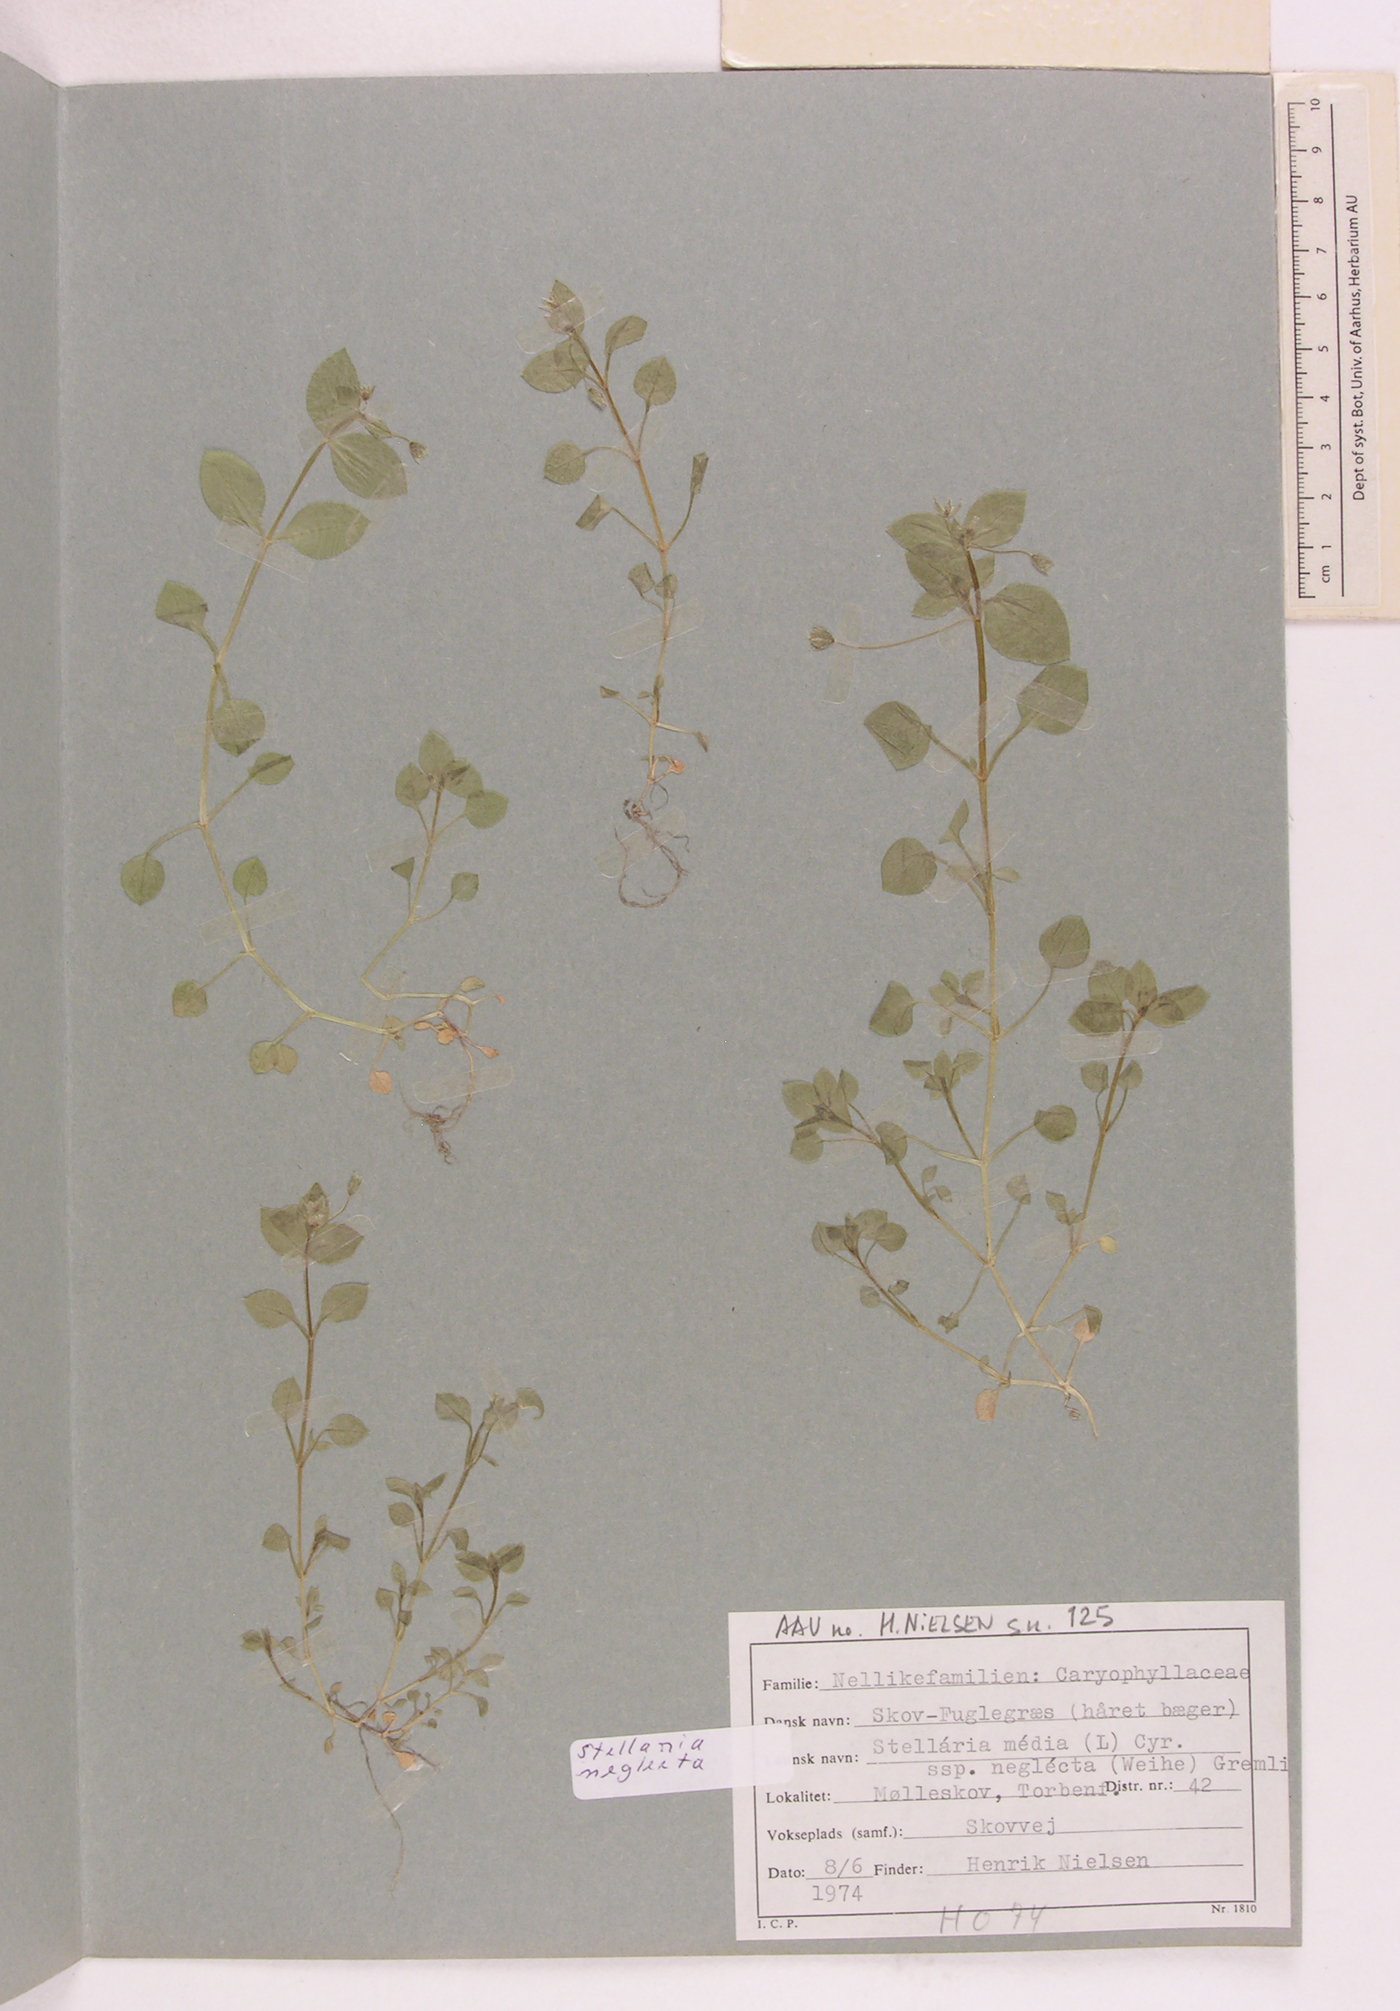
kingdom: Plantae
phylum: Tracheophyta
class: Magnoliopsida
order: Caryophyllales
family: Caryophyllaceae
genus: Stellaria
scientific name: Stellaria neglecta
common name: Greater chickweed
